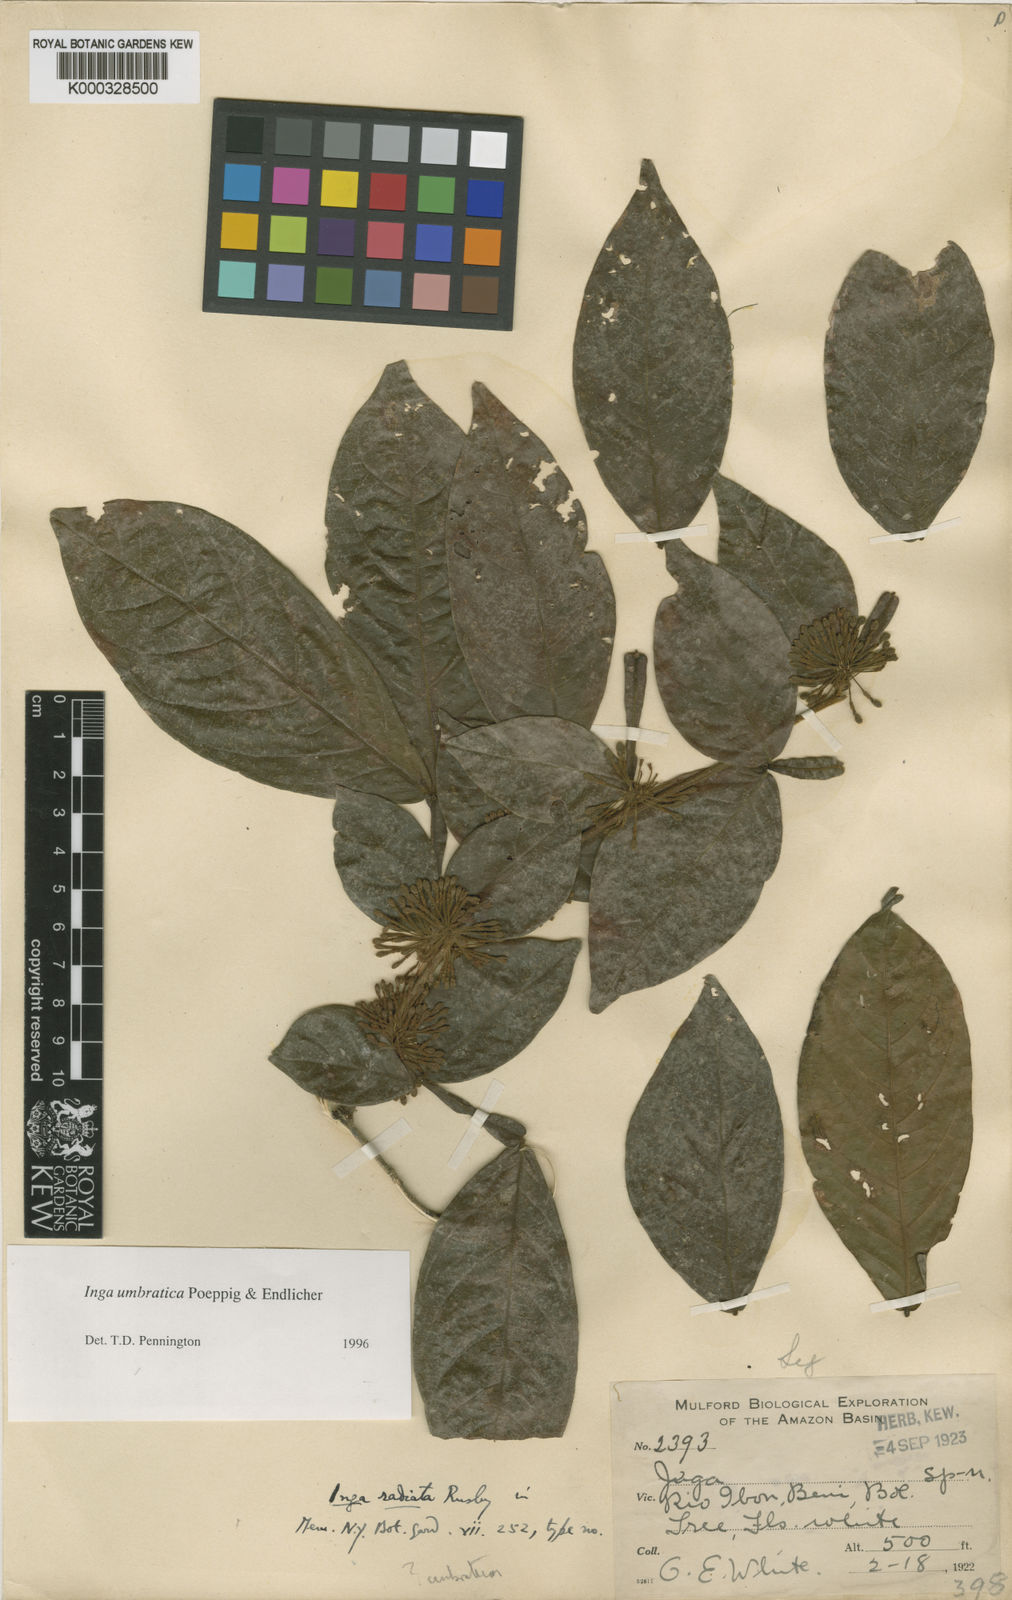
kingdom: Plantae
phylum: Tracheophyta
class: Magnoliopsida
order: Fabales
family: Fabaceae
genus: Inga
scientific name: Inga umbratica
